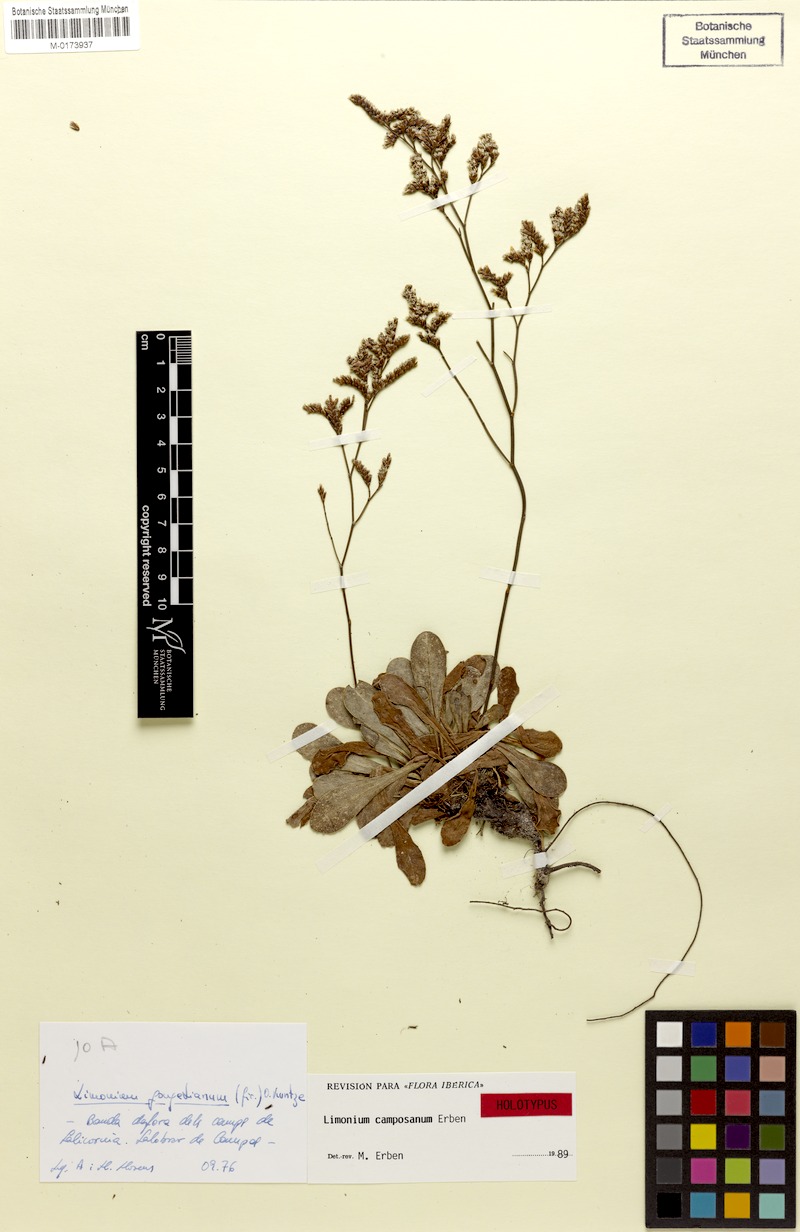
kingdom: Plantae
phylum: Tracheophyta
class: Magnoliopsida
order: Caryophyllales
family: Plumbaginaceae
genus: Limonium
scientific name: Limonium camposanum
